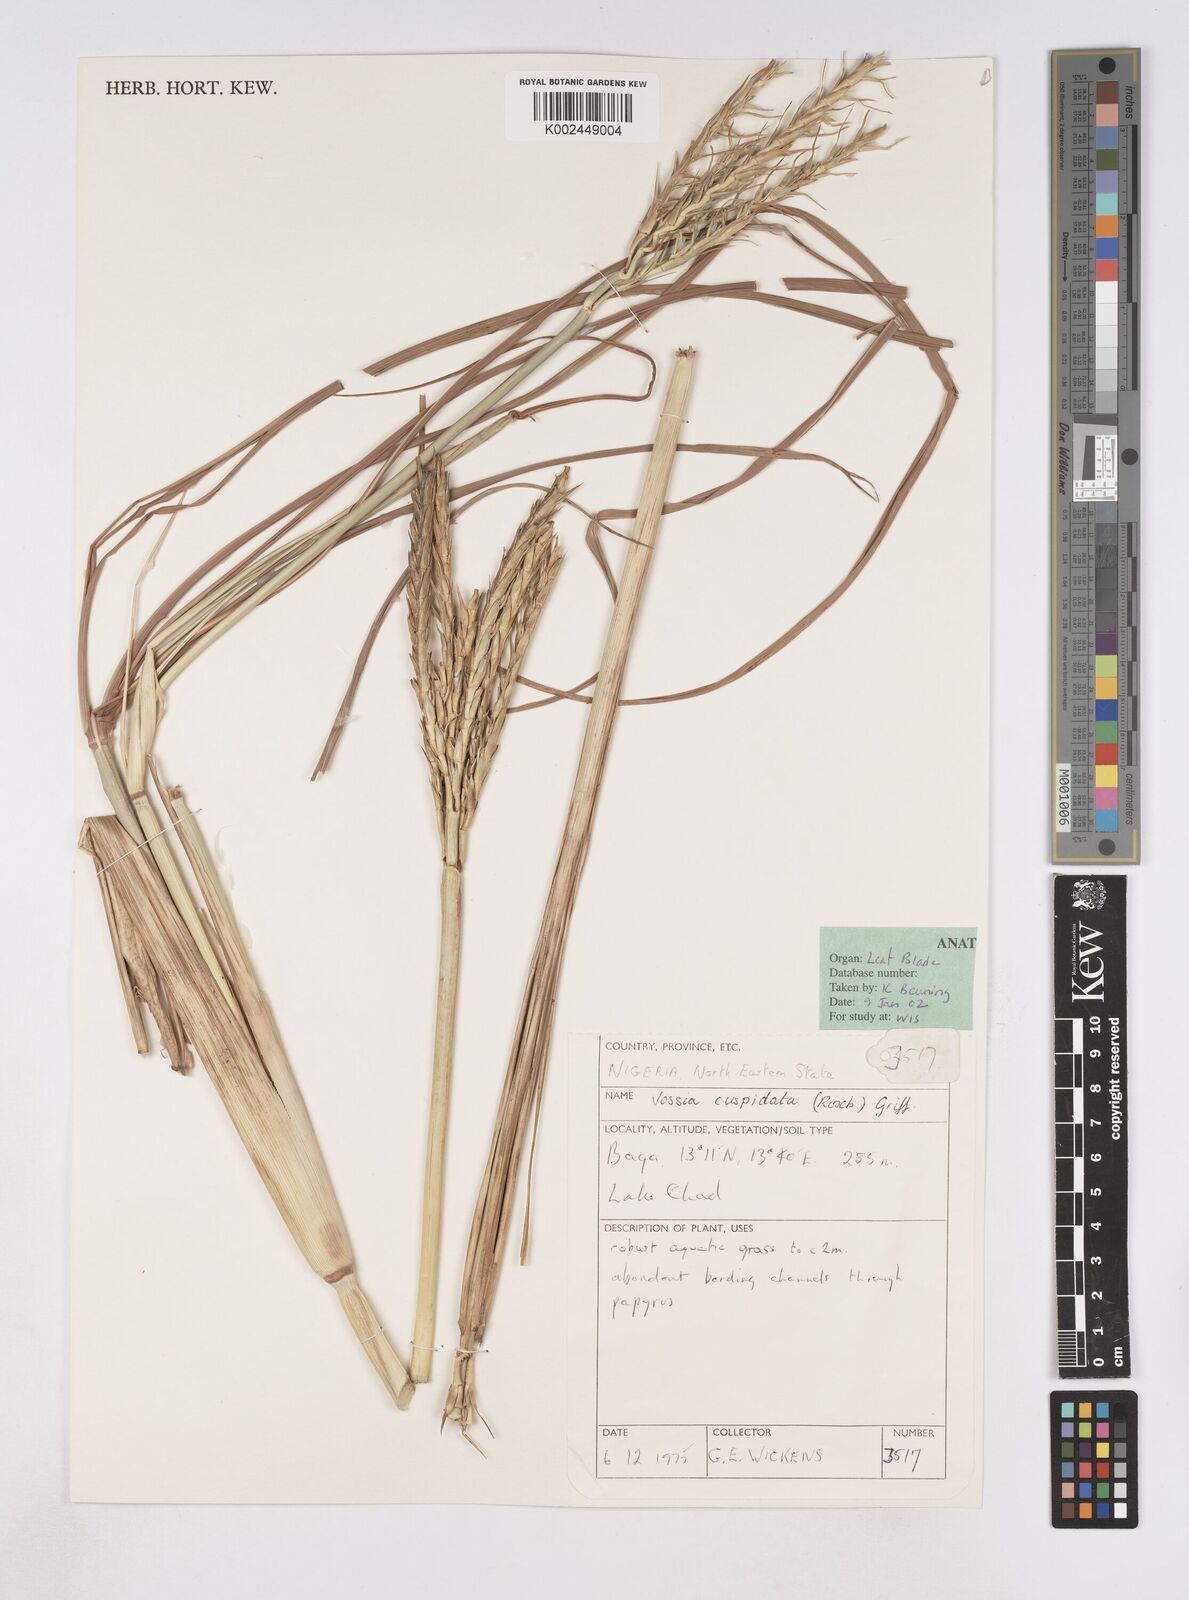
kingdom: Plantae
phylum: Tracheophyta
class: Liliopsida
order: Poales
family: Poaceae
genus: Vossia
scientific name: Vossia cuspidata
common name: Hippo grass
